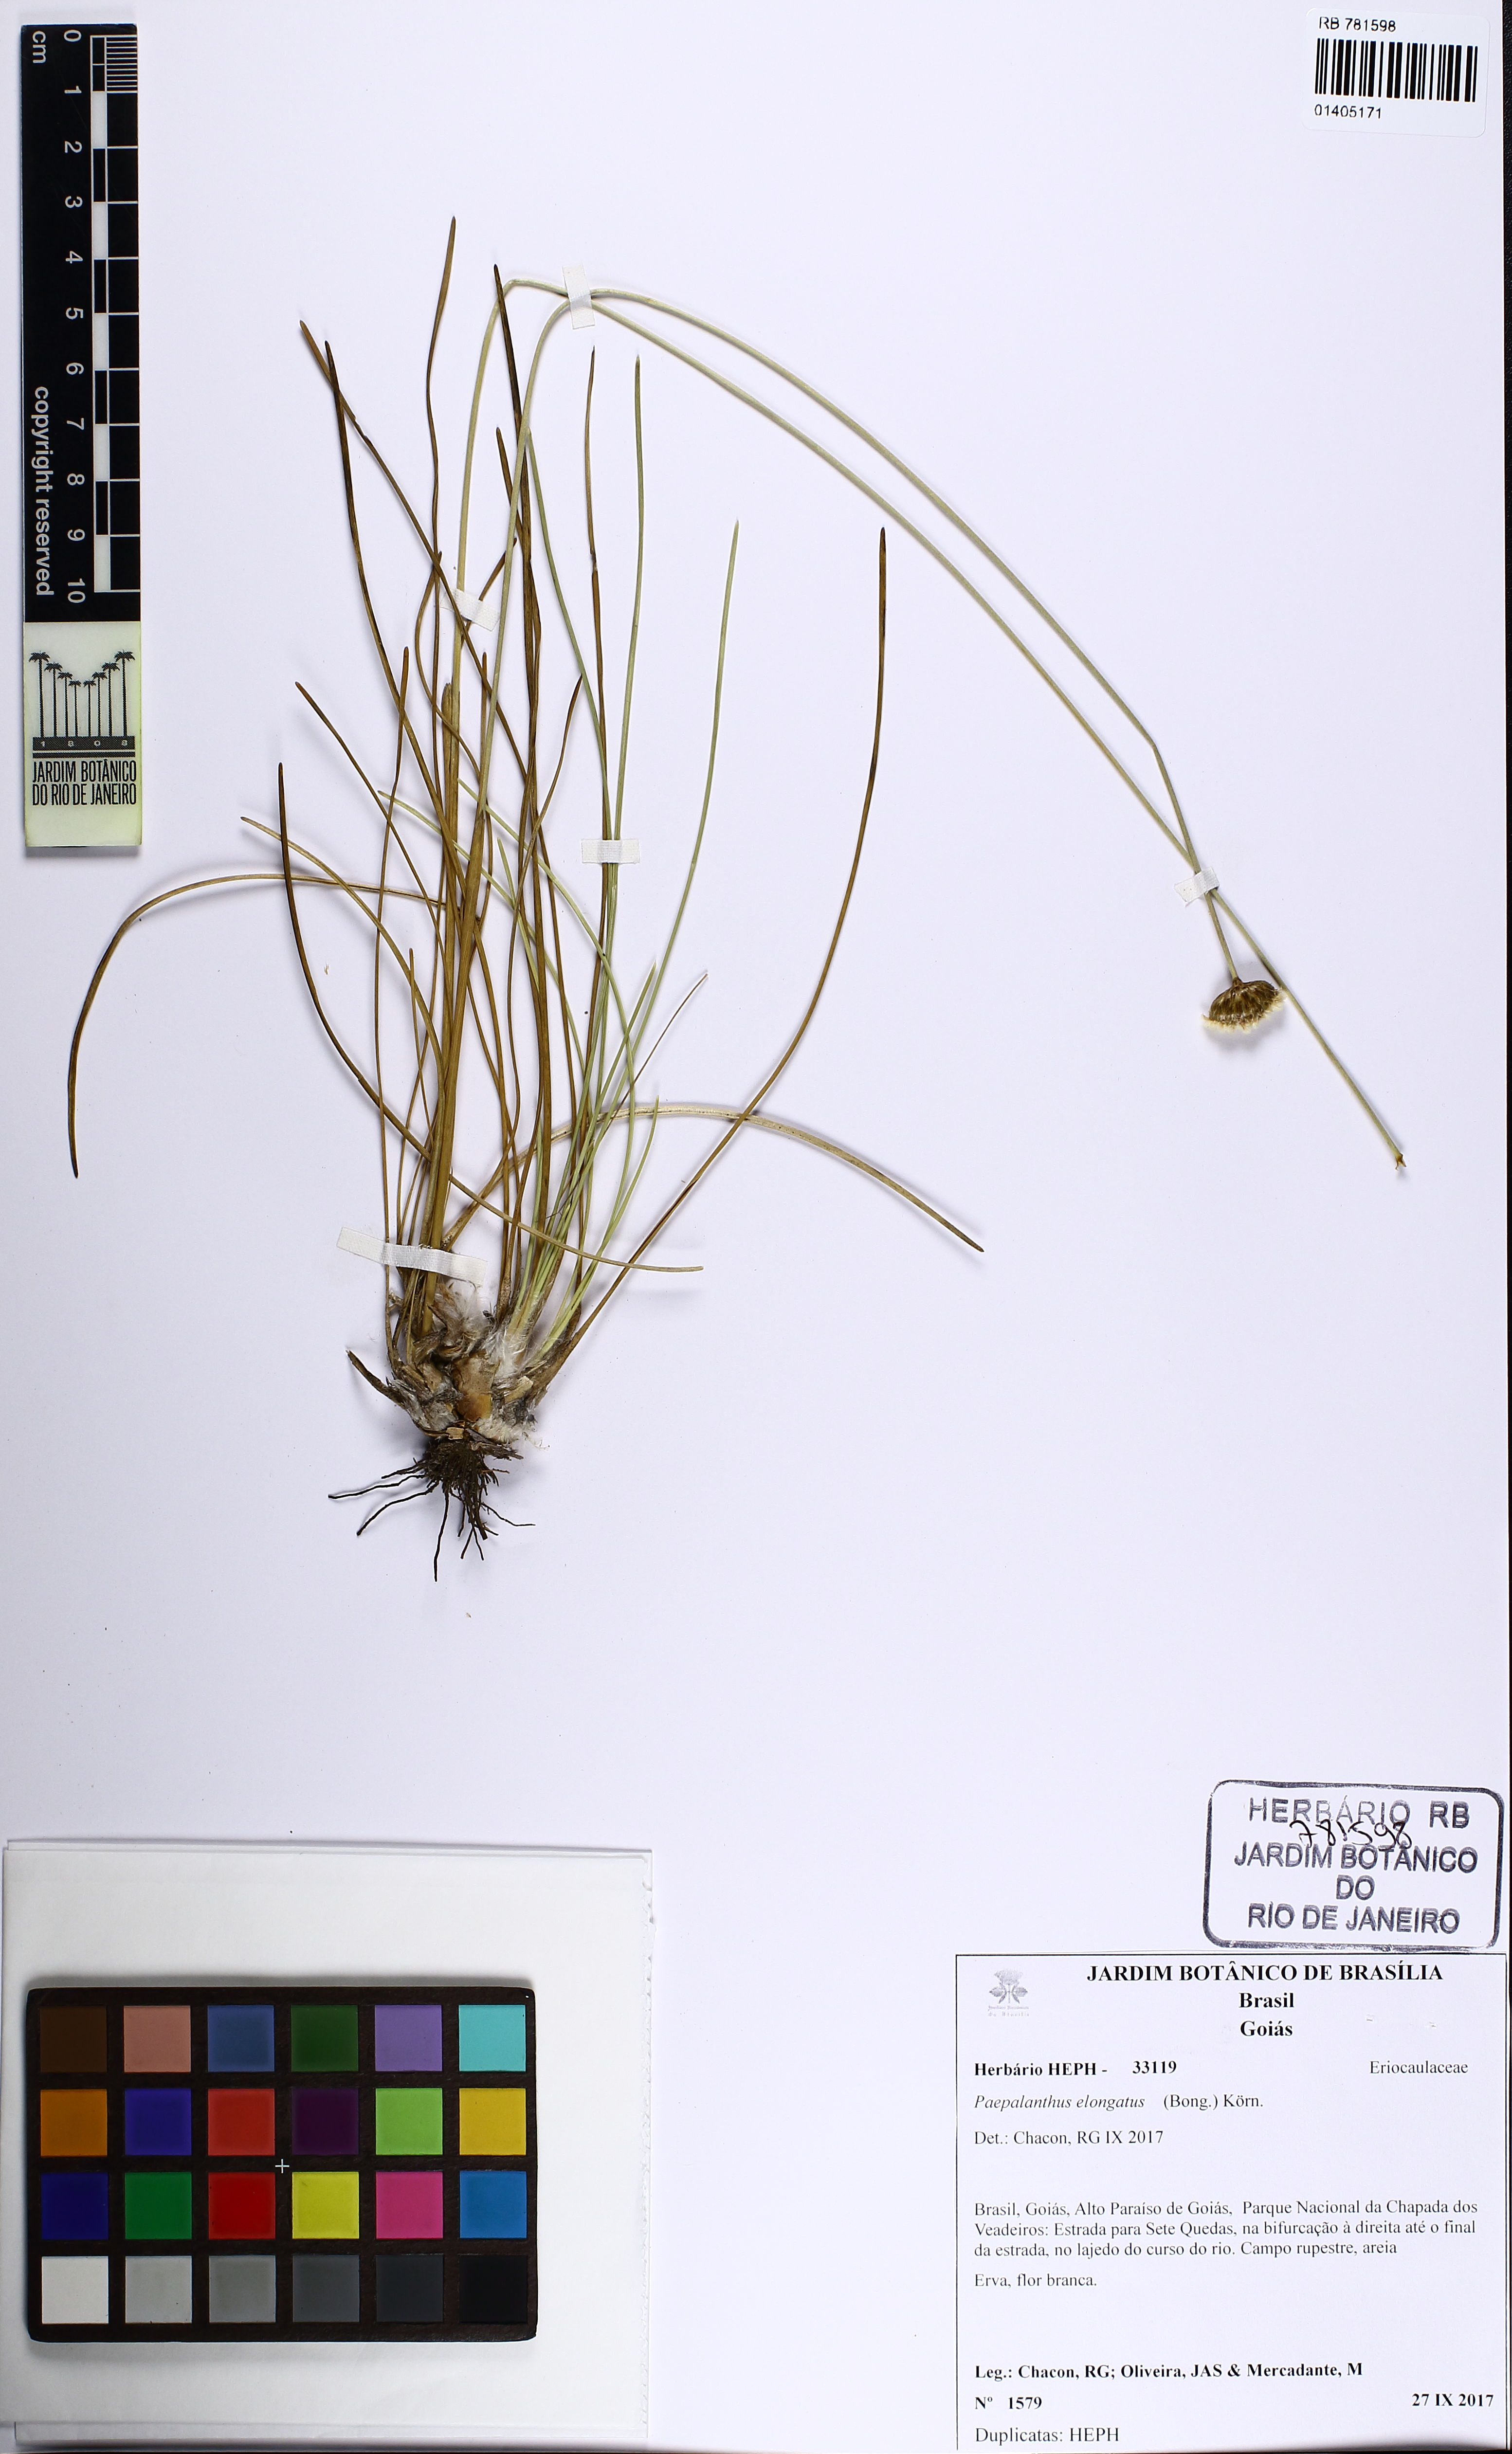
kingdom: Plantae
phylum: Tracheophyta
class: Liliopsida
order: Poales
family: Eriocaulaceae
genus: Paepalanthus
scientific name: Paepalanthus elongatus
